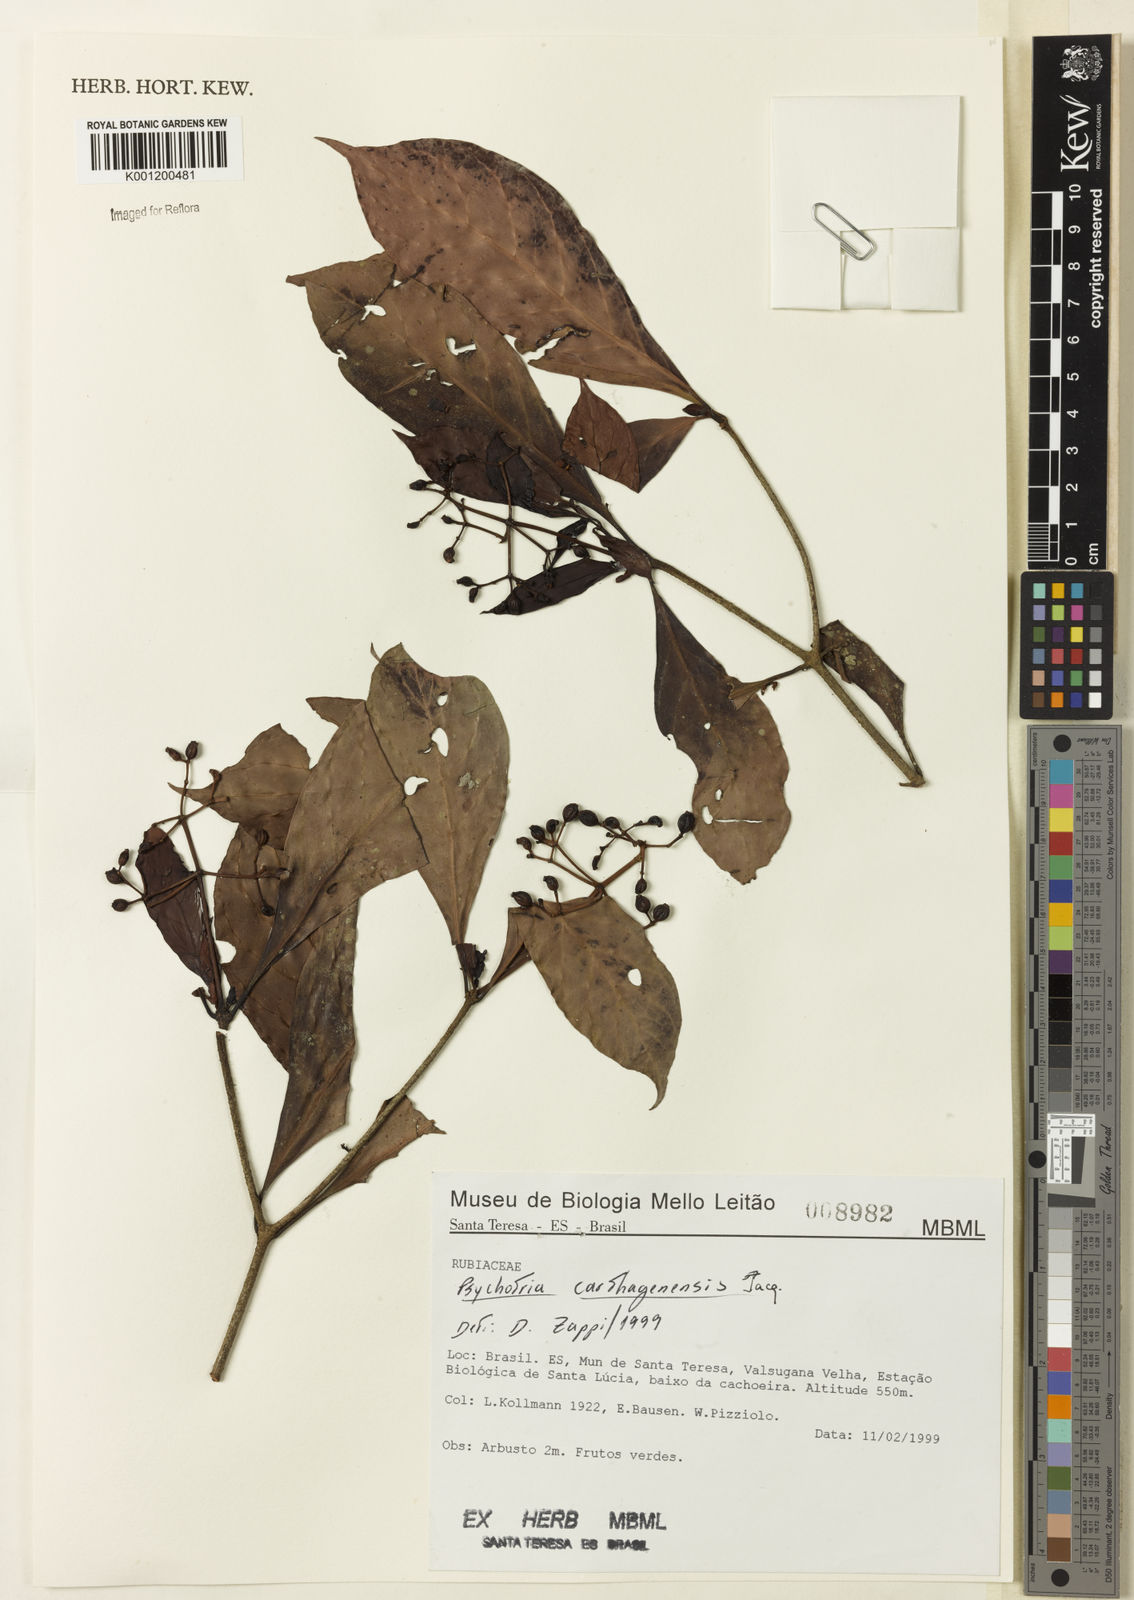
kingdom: Plantae
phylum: Tracheophyta
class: Magnoliopsida
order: Gentianales
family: Rubiaceae
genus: Psychotria
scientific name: Psychotria carthagenensis
